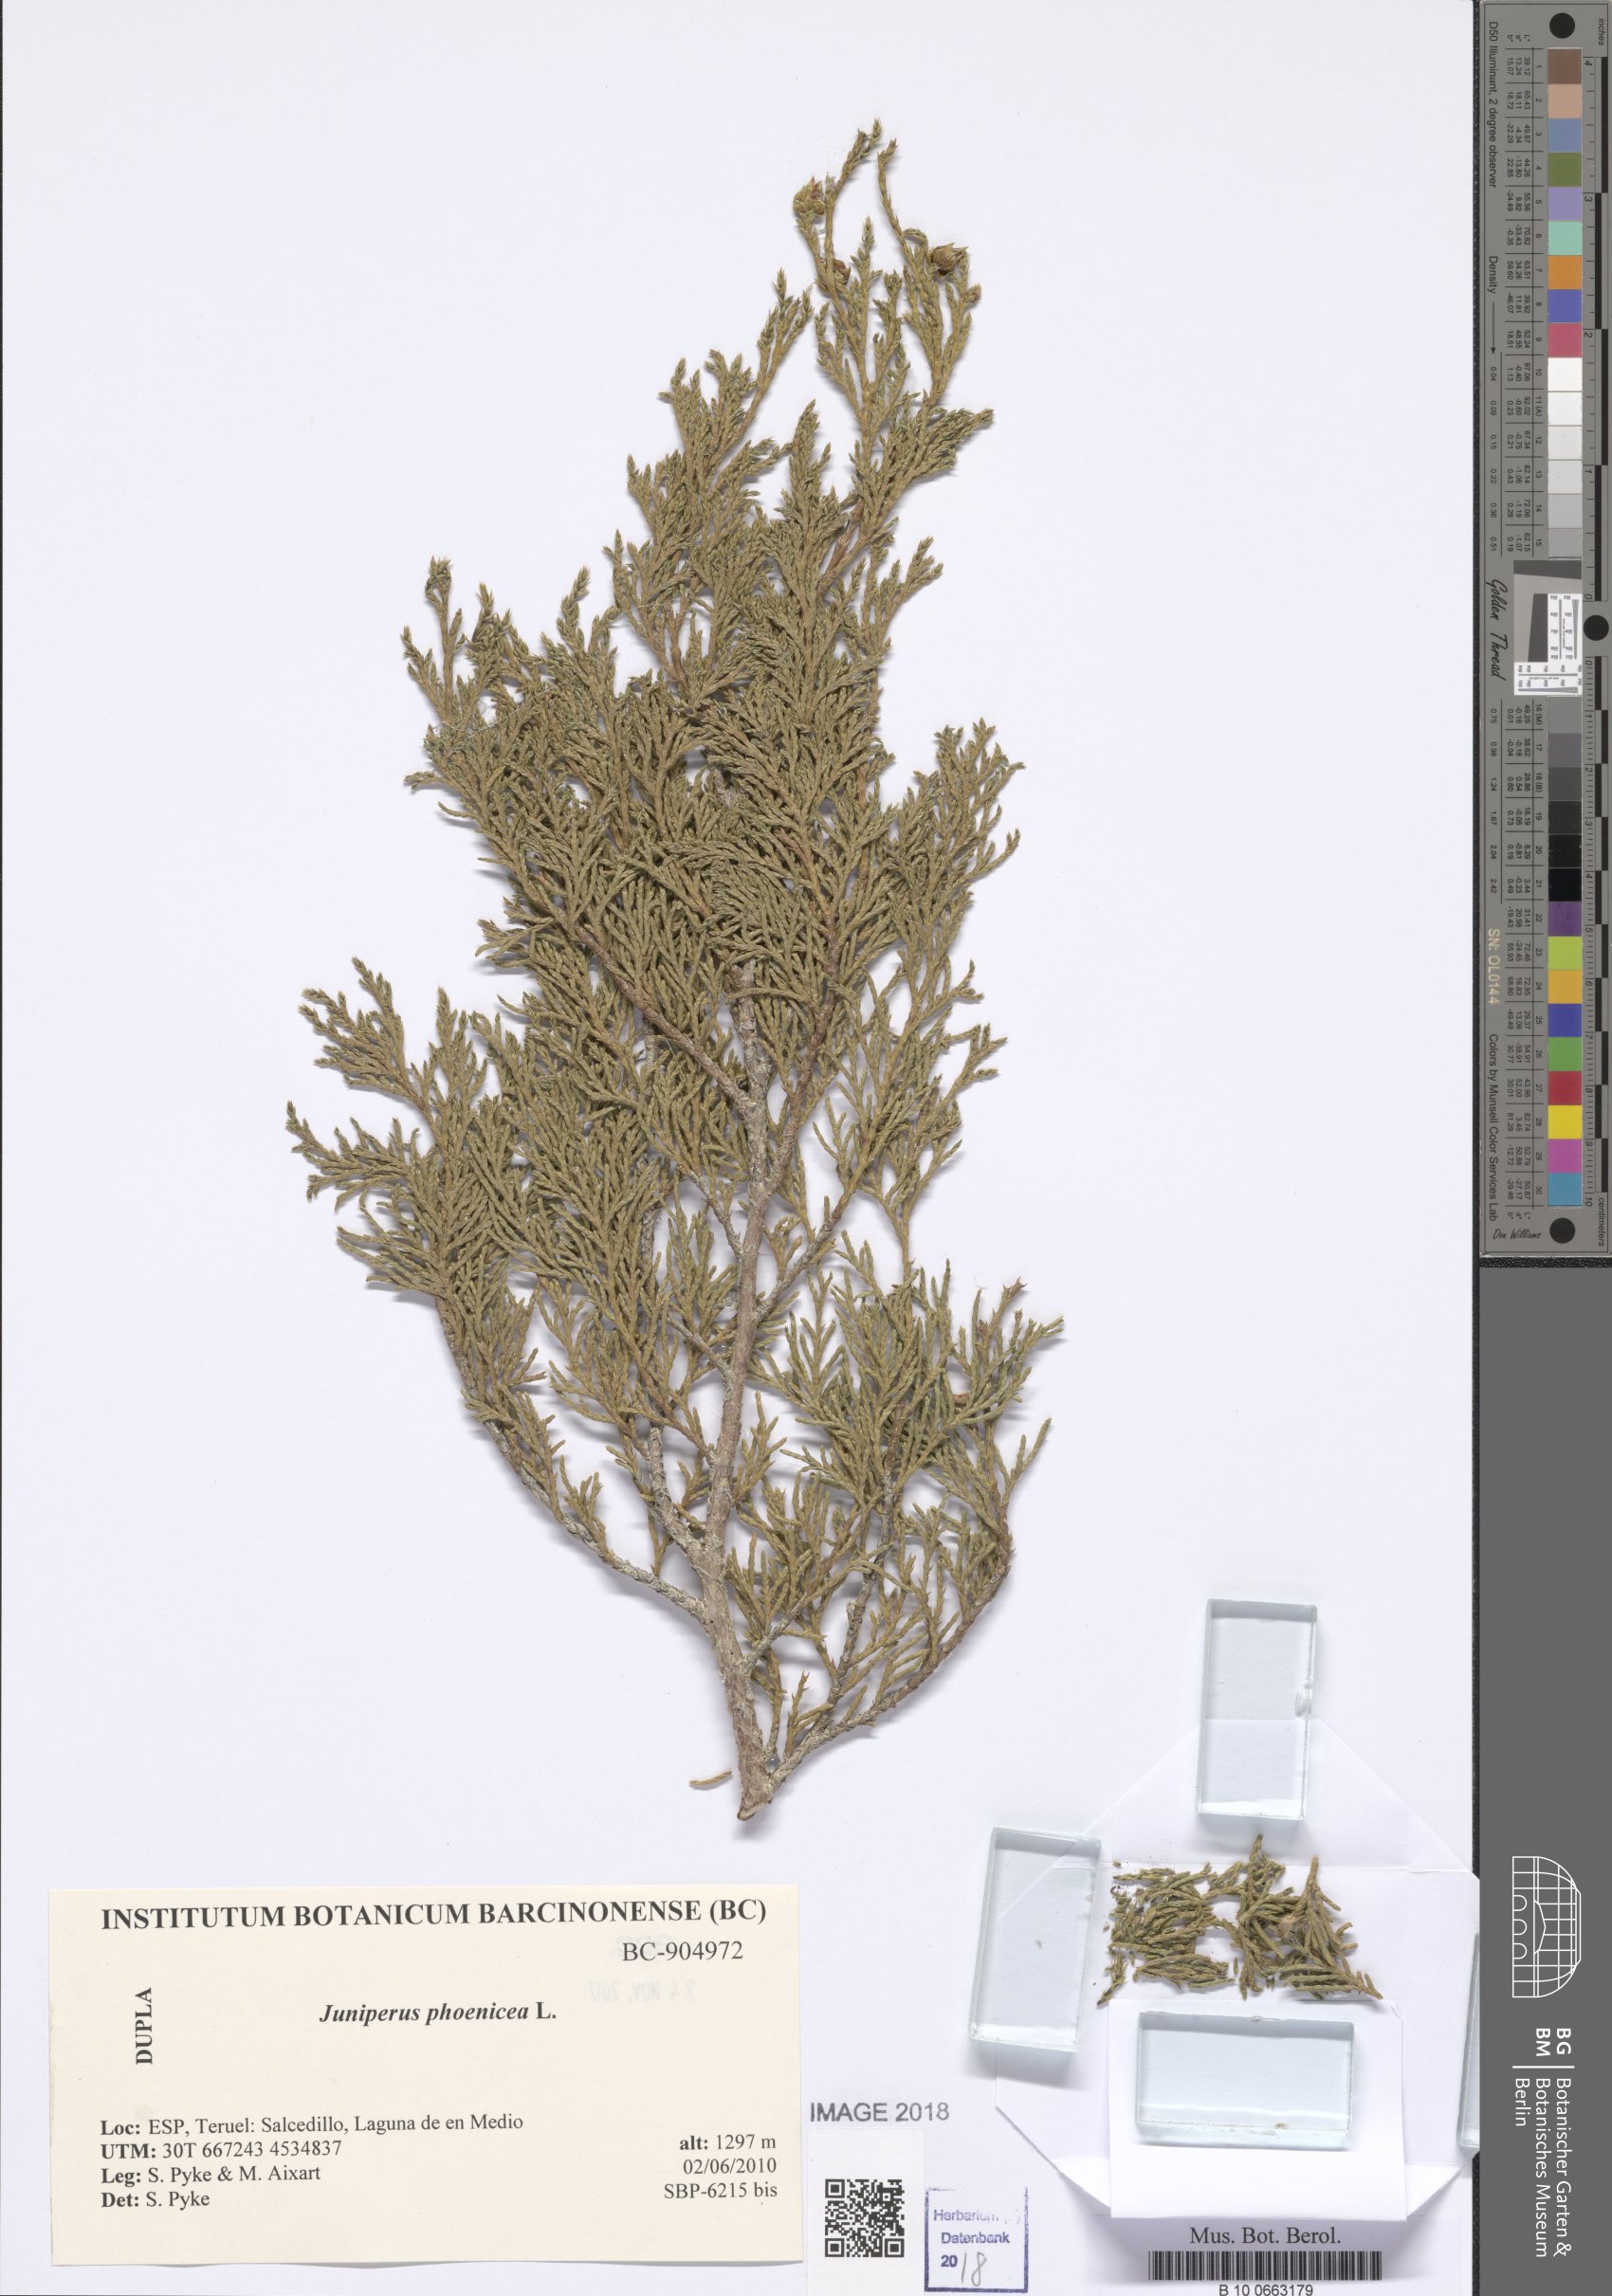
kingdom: Plantae
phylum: Tracheophyta
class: Pinopsida
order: Pinales
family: Cupressaceae
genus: Juniperus
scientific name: Juniperus phoenicea
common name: Phoenician juniper
